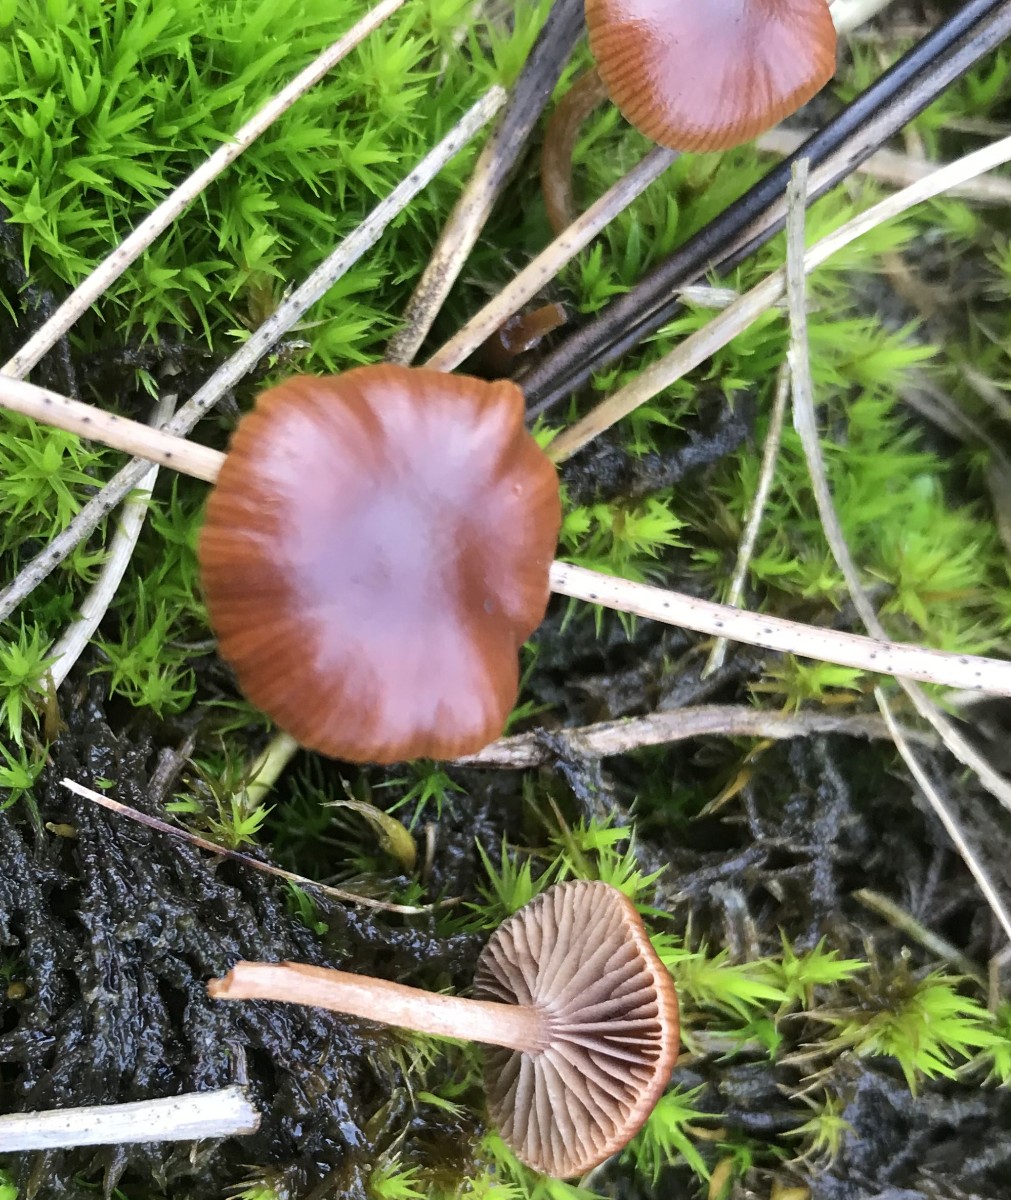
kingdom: Fungi
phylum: Basidiomycota
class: Agaricomycetes
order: Agaricales
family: Strophariaceae
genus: Deconica
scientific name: Deconica montana
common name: rødbrun stråhat
